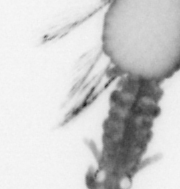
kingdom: Animalia
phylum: Annelida
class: Polychaeta
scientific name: Polychaeta
